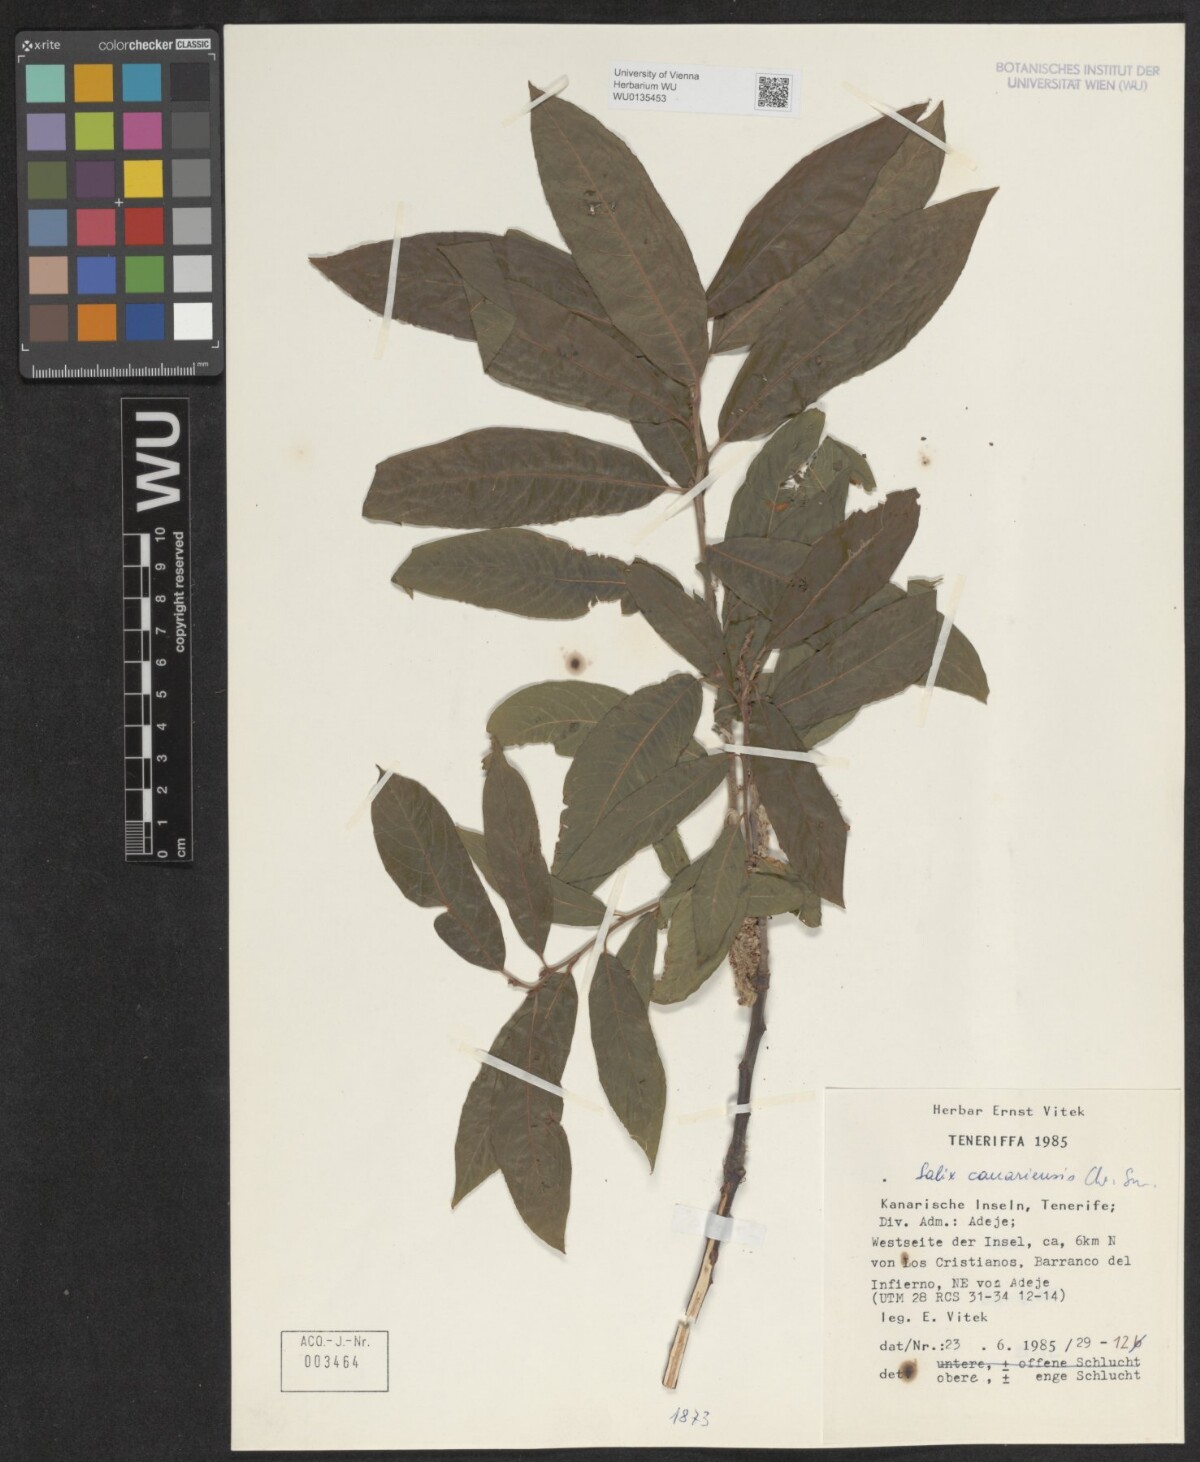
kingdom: Plantae
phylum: Tracheophyta
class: Magnoliopsida
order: Malpighiales
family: Salicaceae
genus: Salix
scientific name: Salix canariensis
